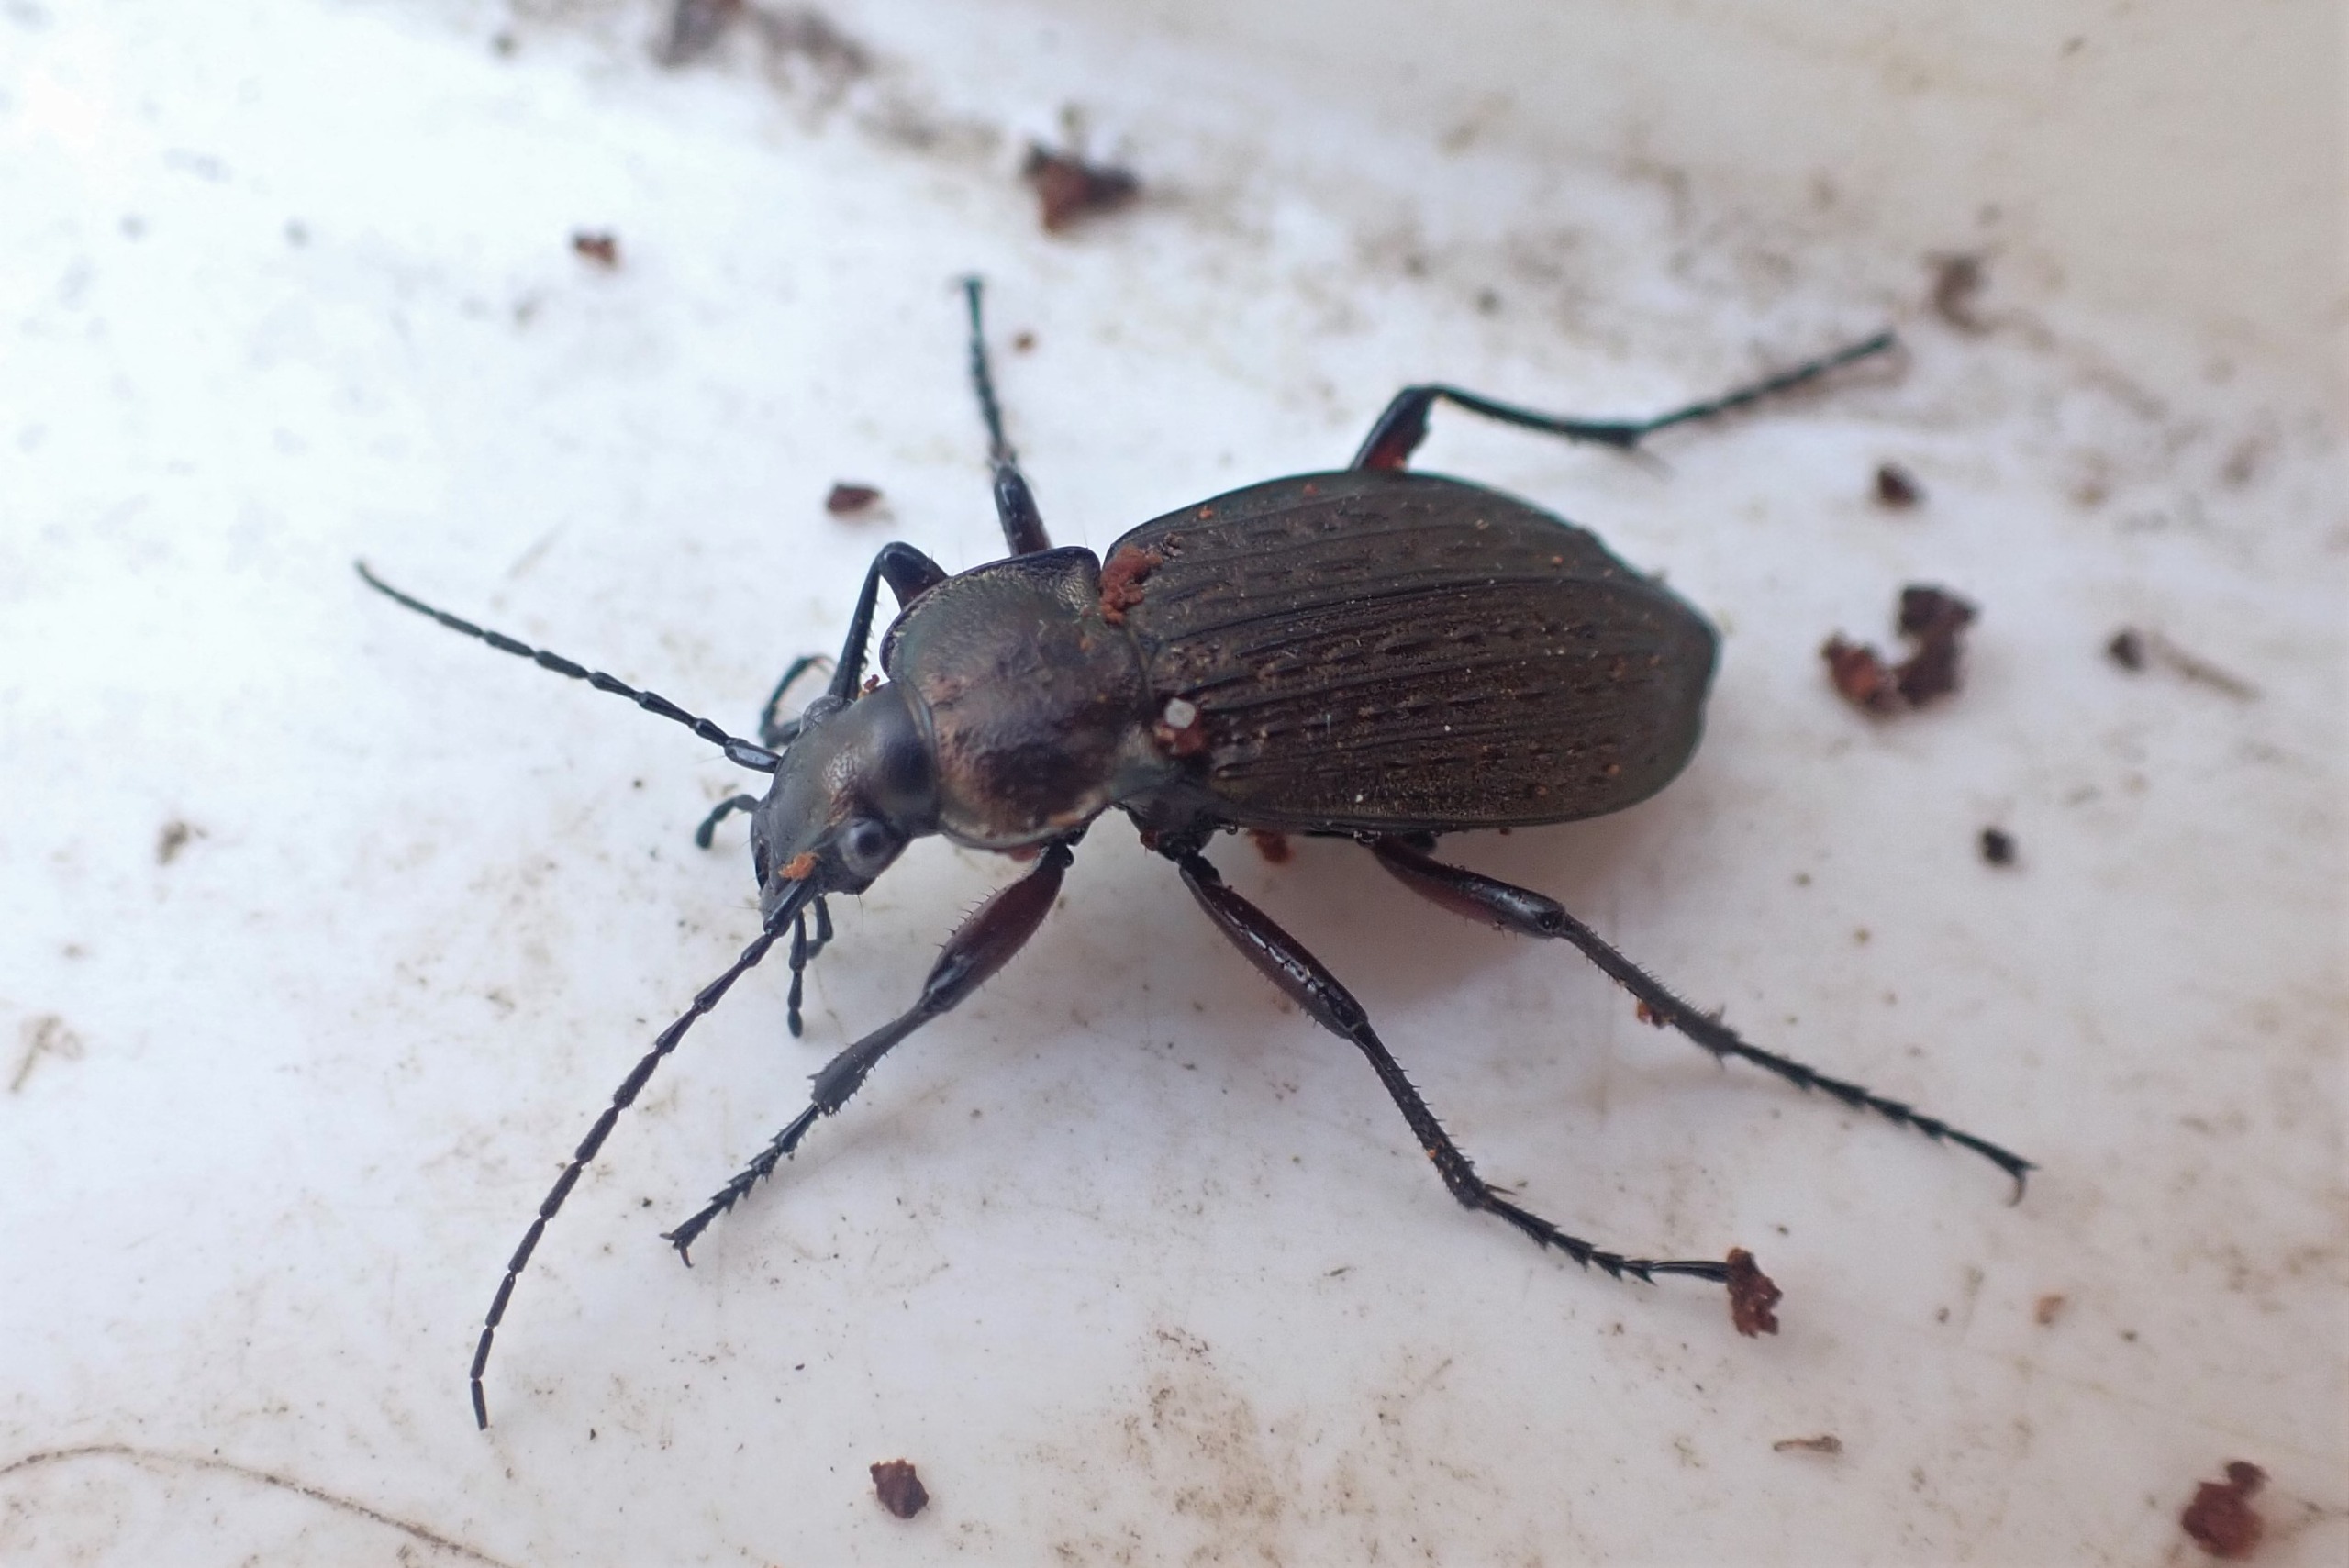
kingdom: Animalia
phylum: Arthropoda
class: Insecta
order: Coleoptera
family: Carabidae
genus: Carabus
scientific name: Carabus granulatus
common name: Kornet løber
